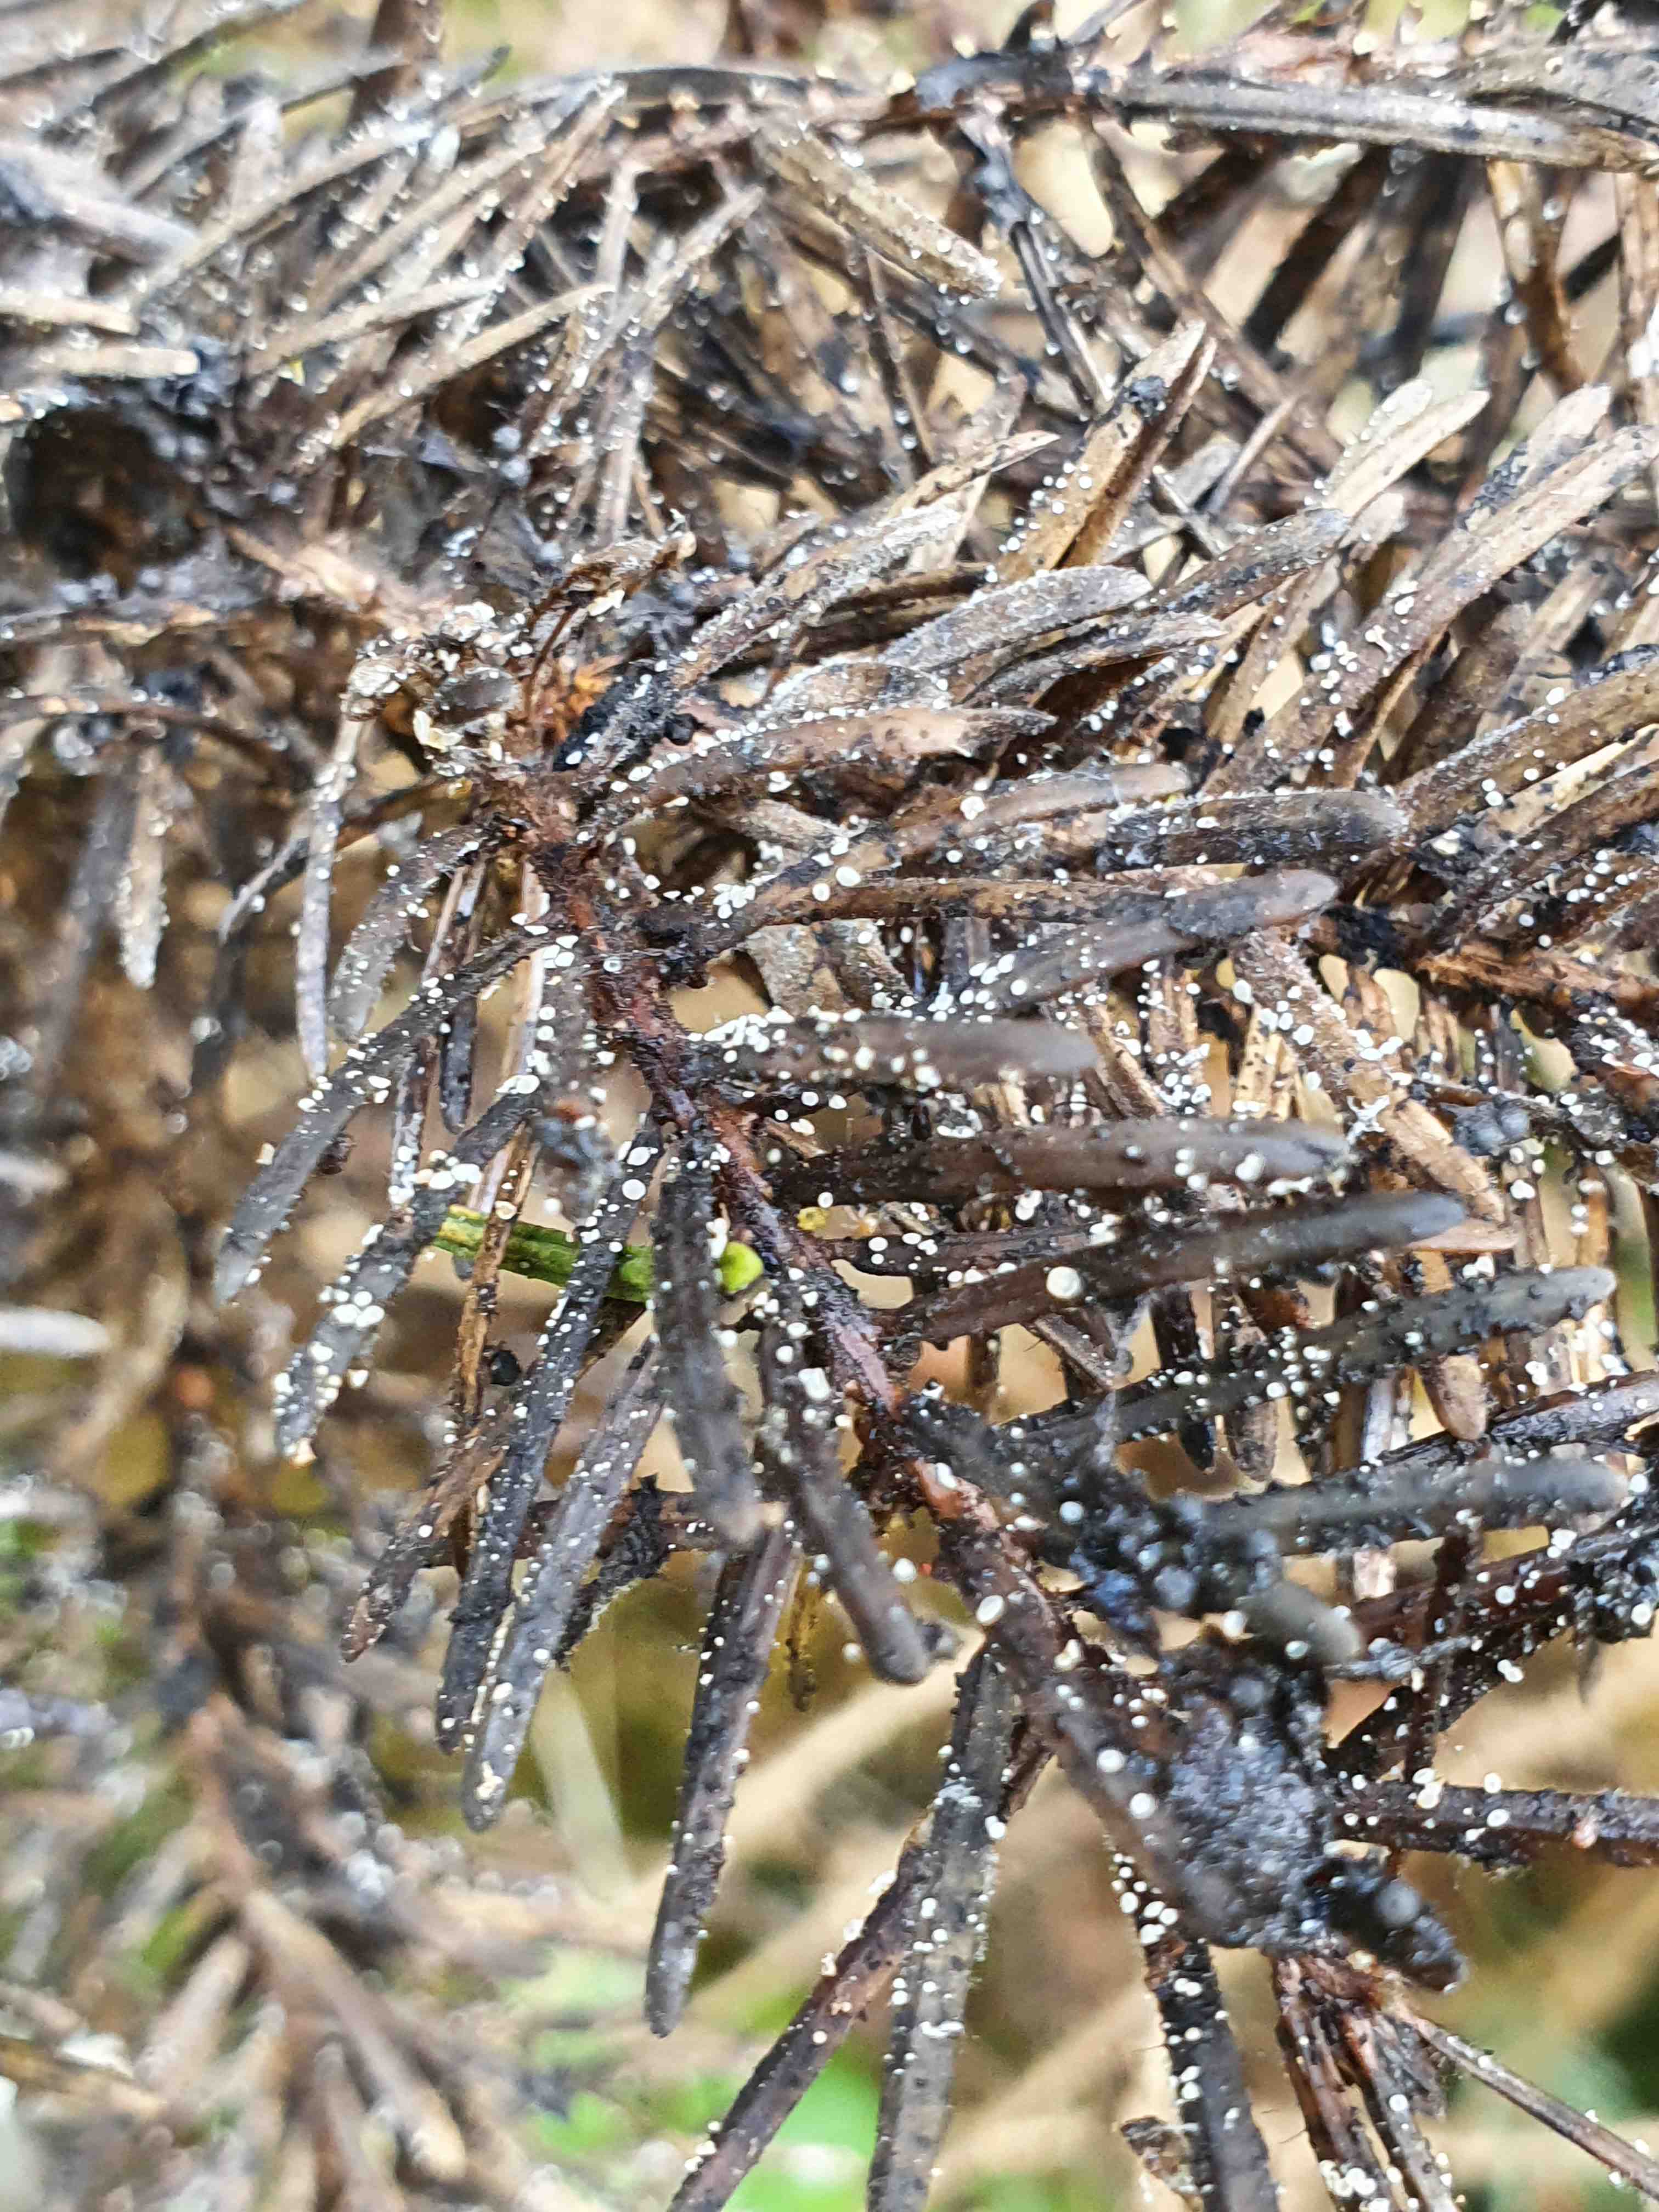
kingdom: Fungi
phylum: Ascomycota
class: Leotiomycetes
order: Helotiales
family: Hyaloscyphaceae
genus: Cistella
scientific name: Cistella acuum
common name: nåle-sirskive
